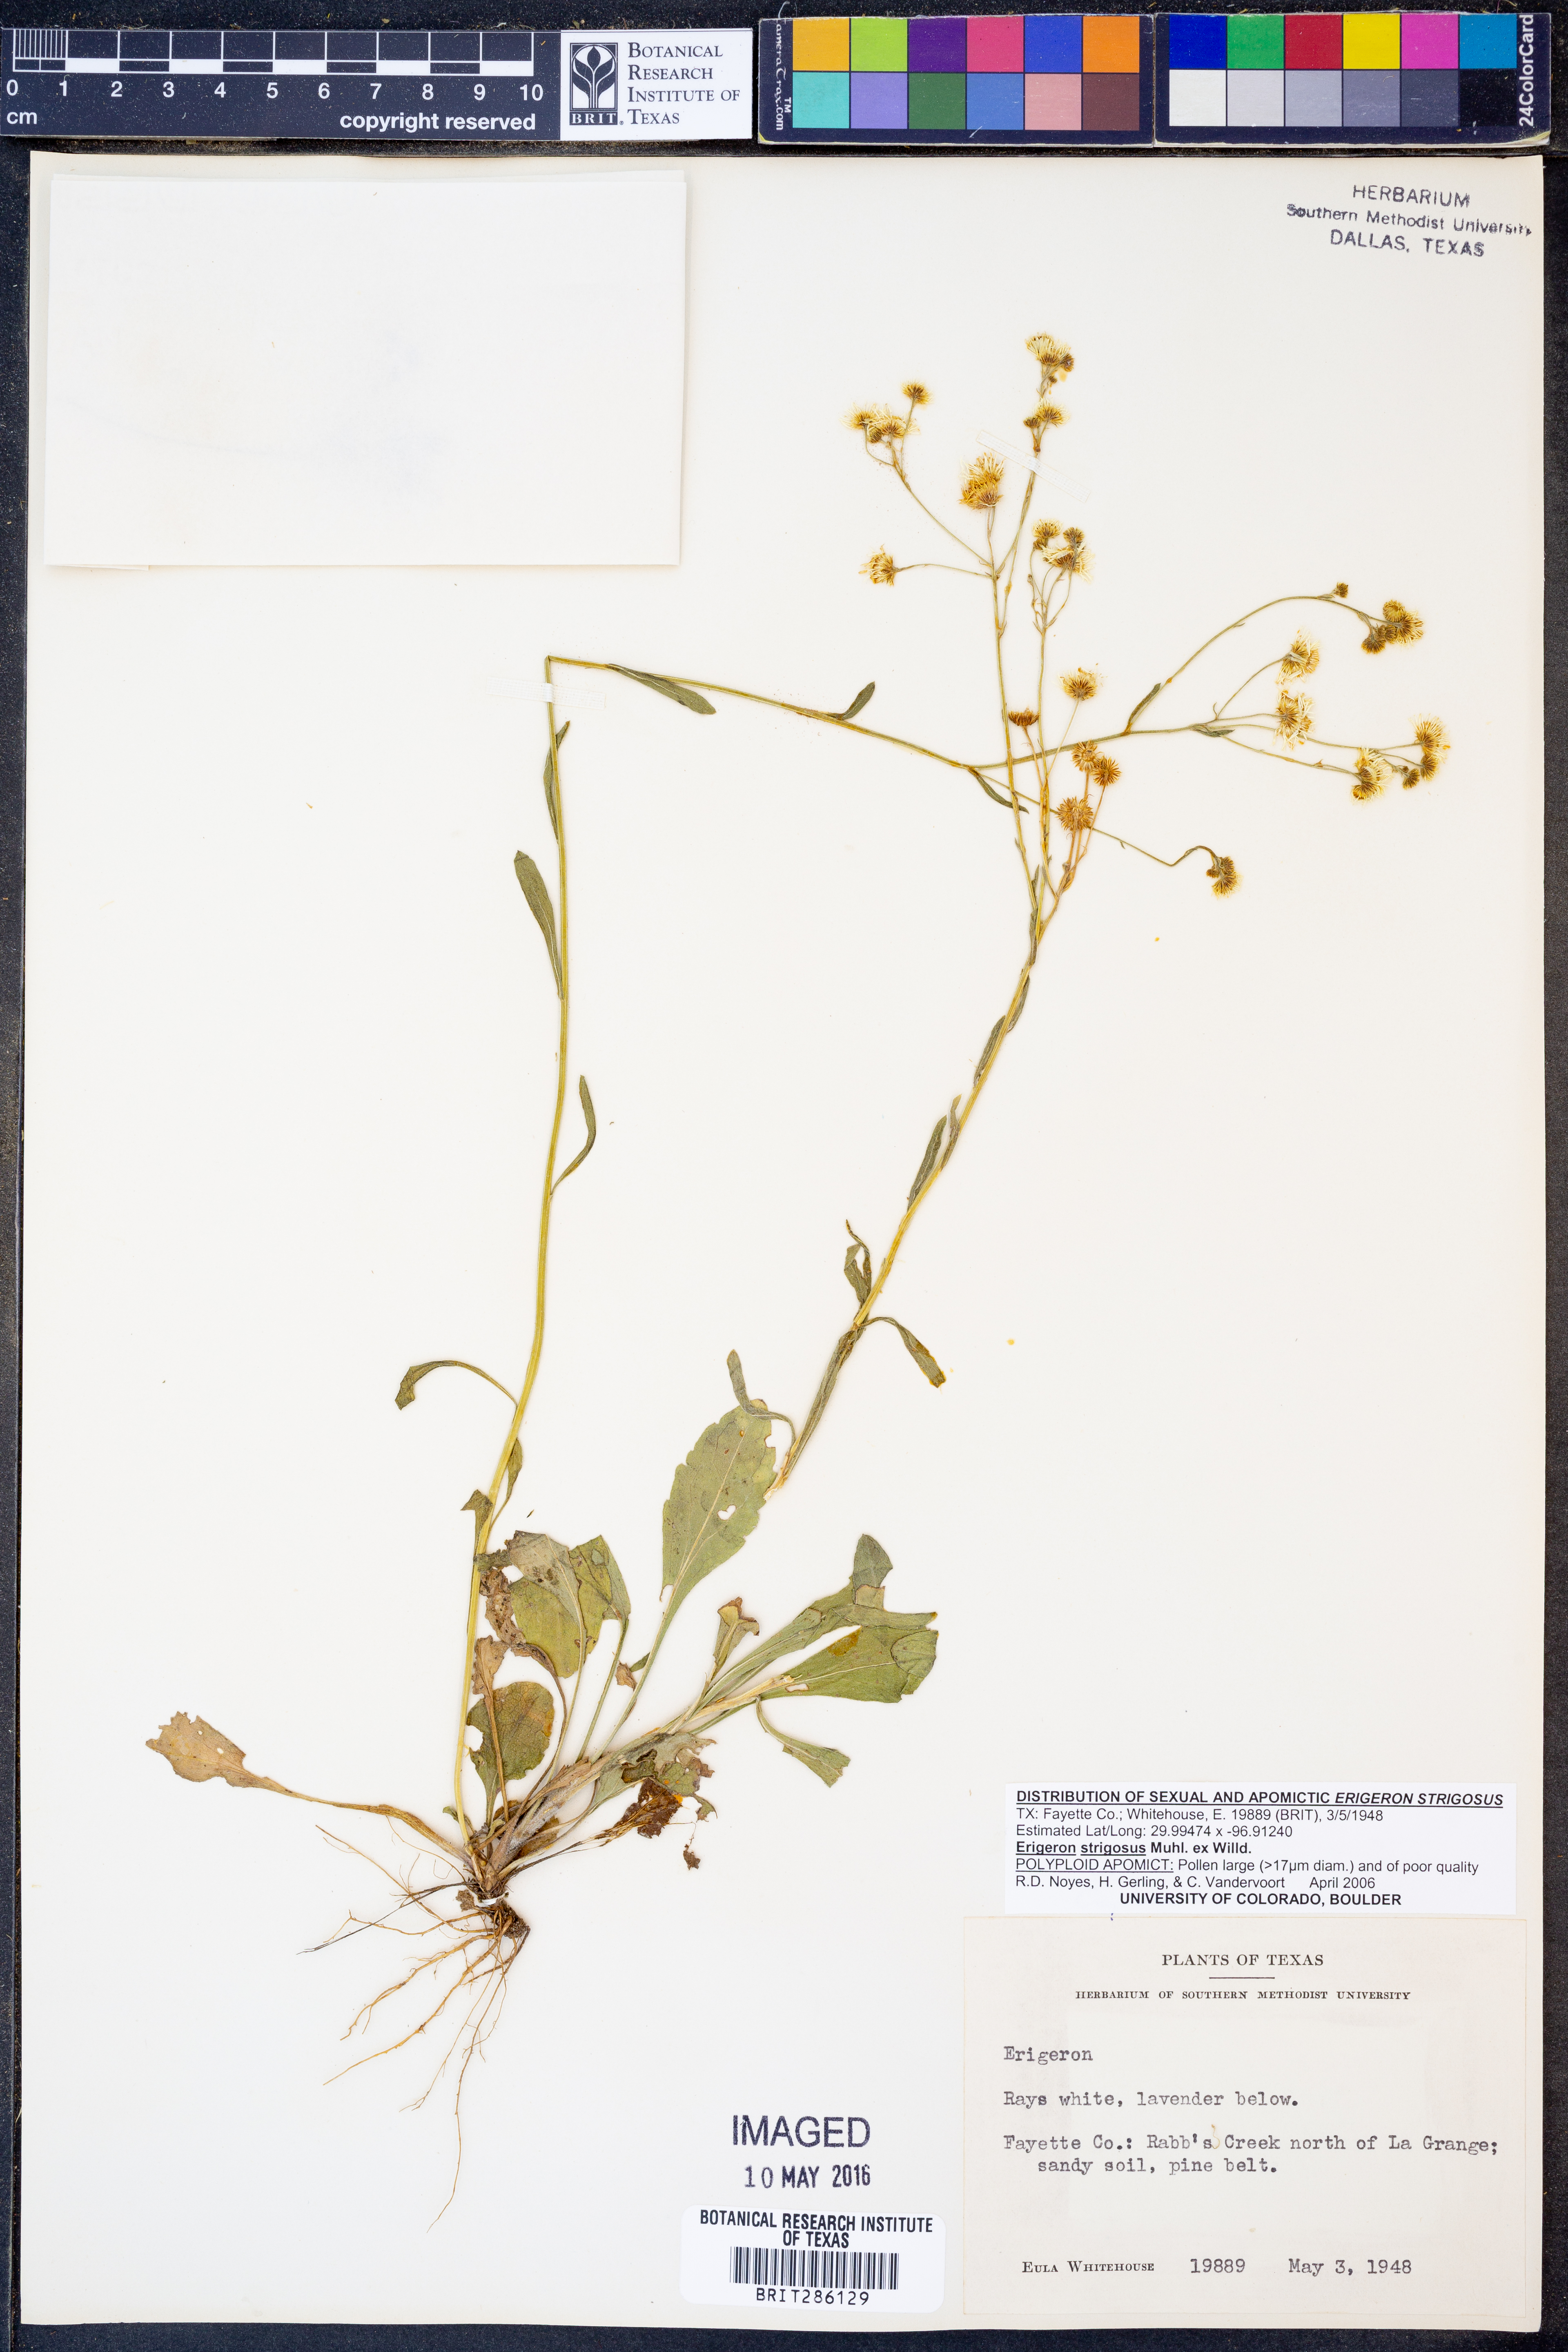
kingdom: Plantae
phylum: Tracheophyta
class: Magnoliopsida
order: Asterales
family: Asteraceae
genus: Erigeron
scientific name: Erigeron strigosus
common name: Common eastern fleabane
